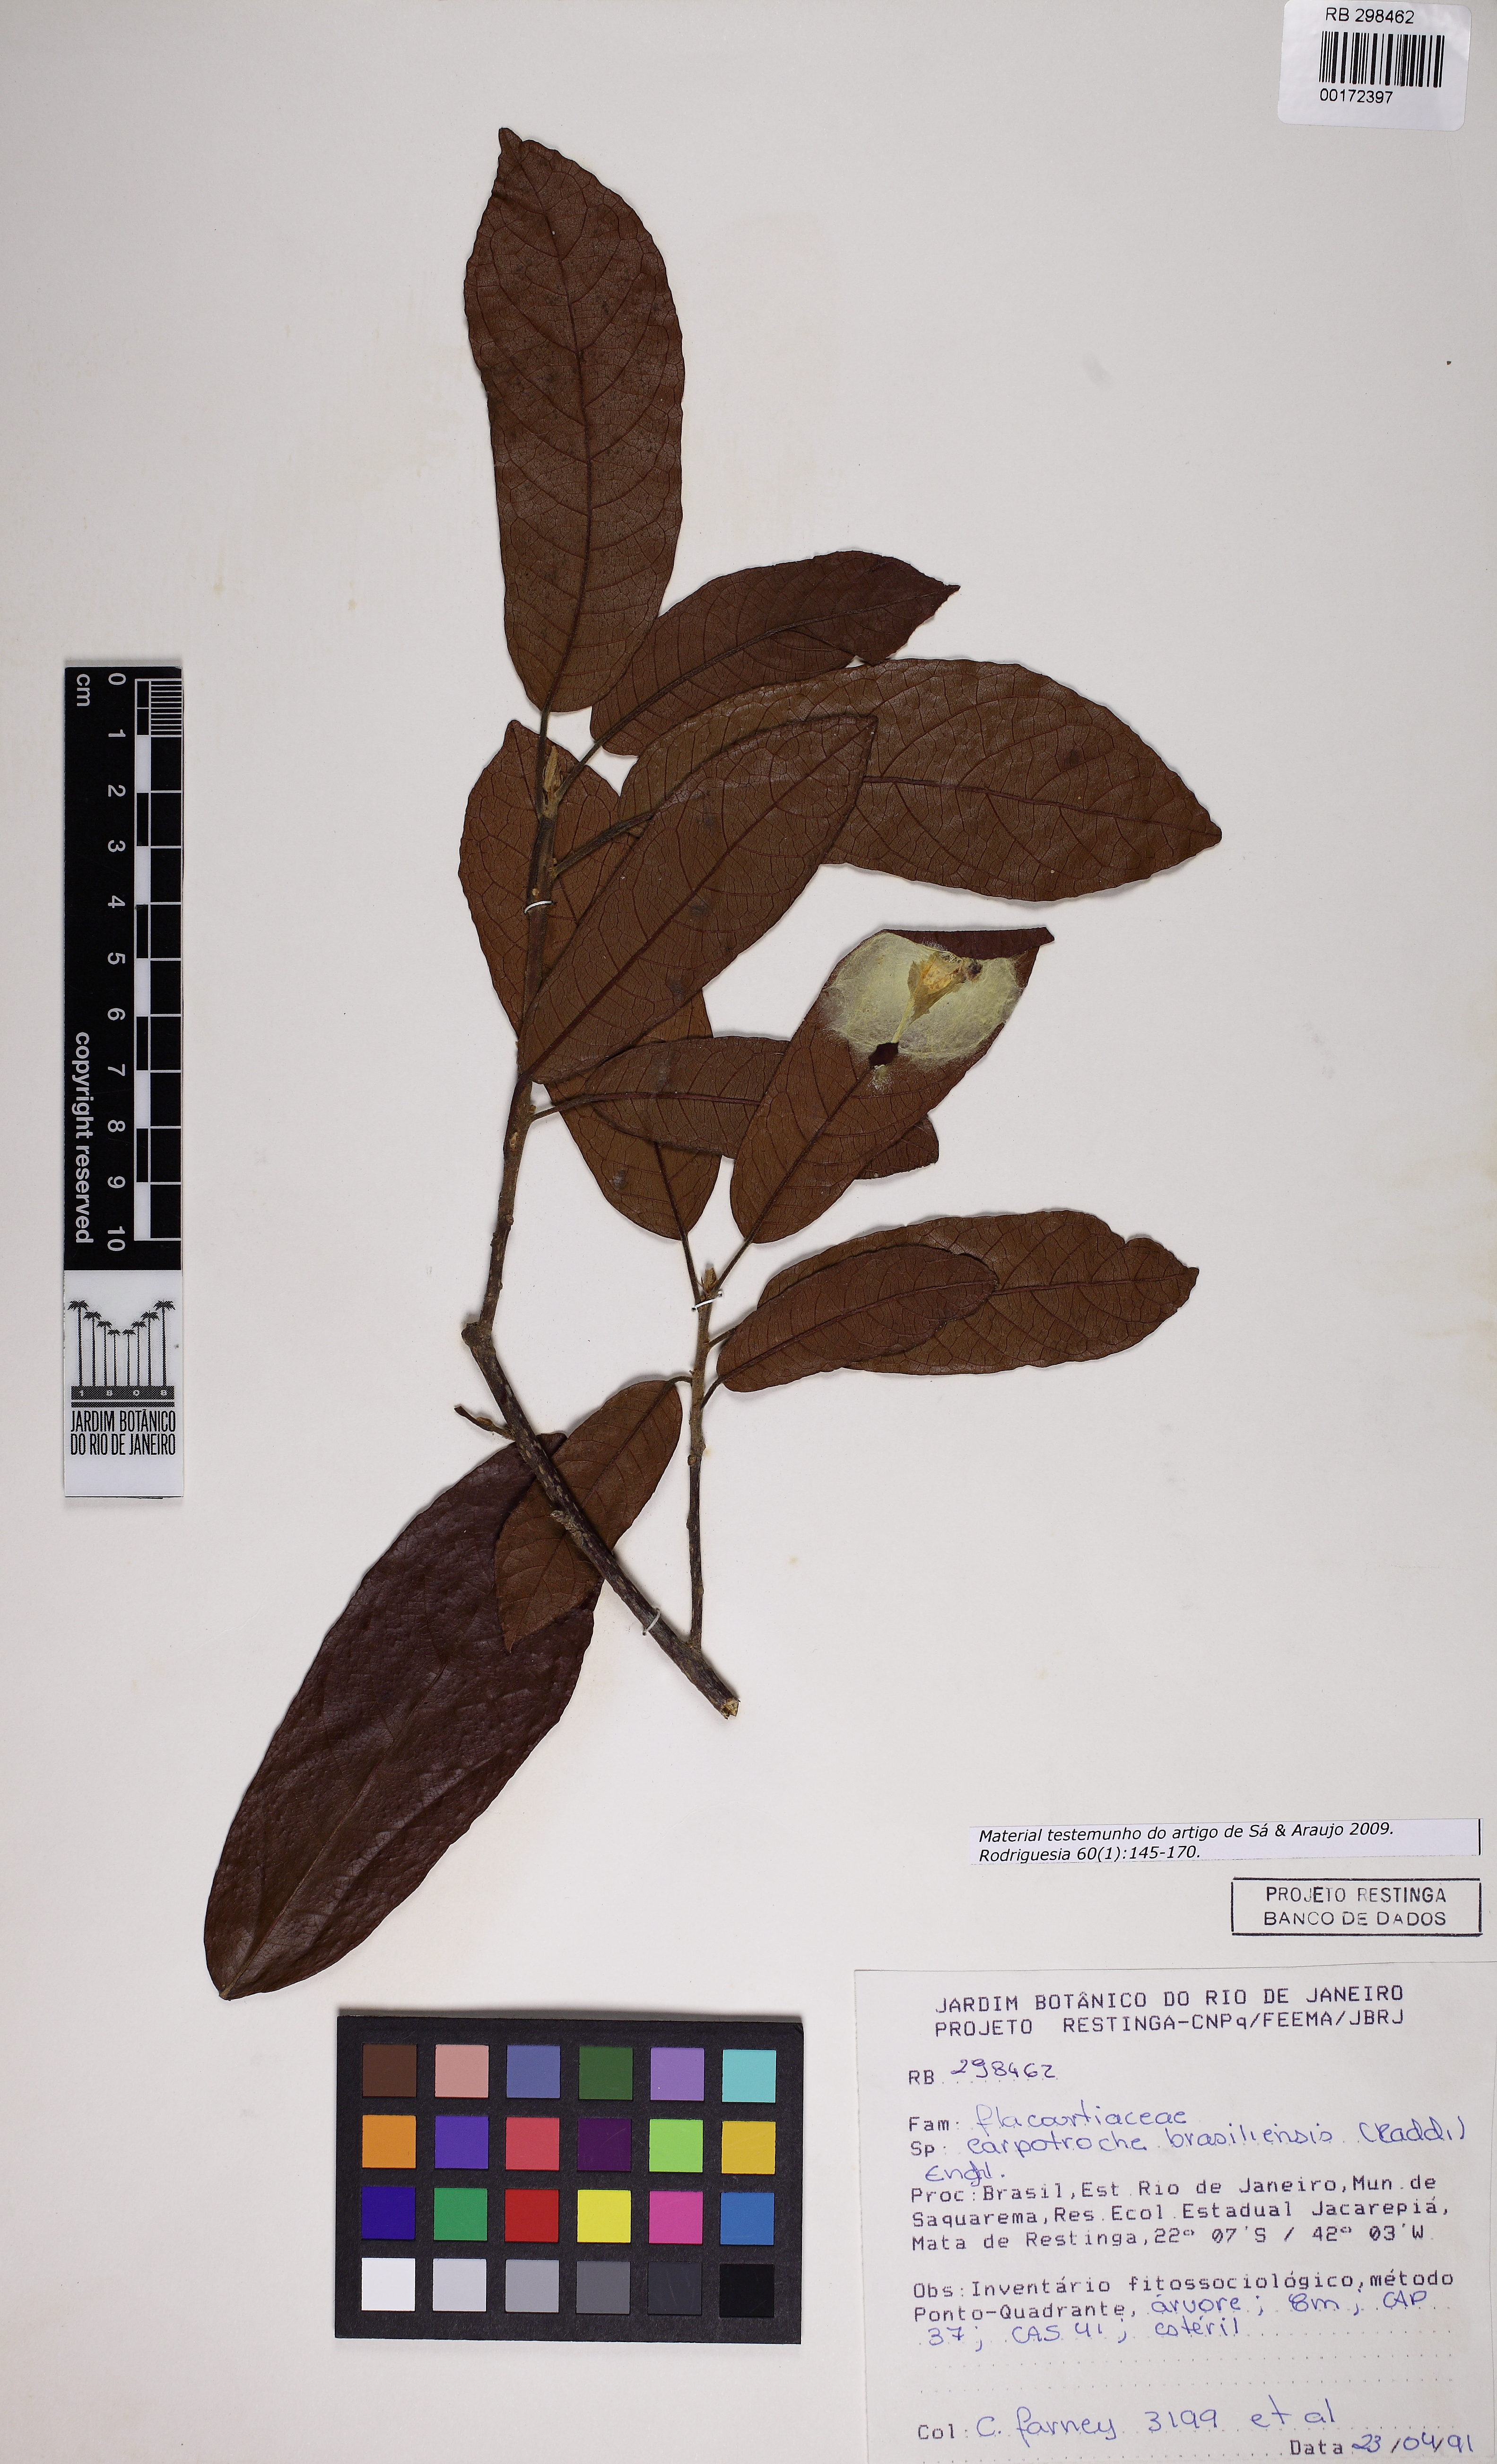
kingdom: Plantae
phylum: Tracheophyta
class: Magnoliopsida
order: Malpighiales
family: Achariaceae
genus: Carpotroche
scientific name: Carpotroche brasiliensis
